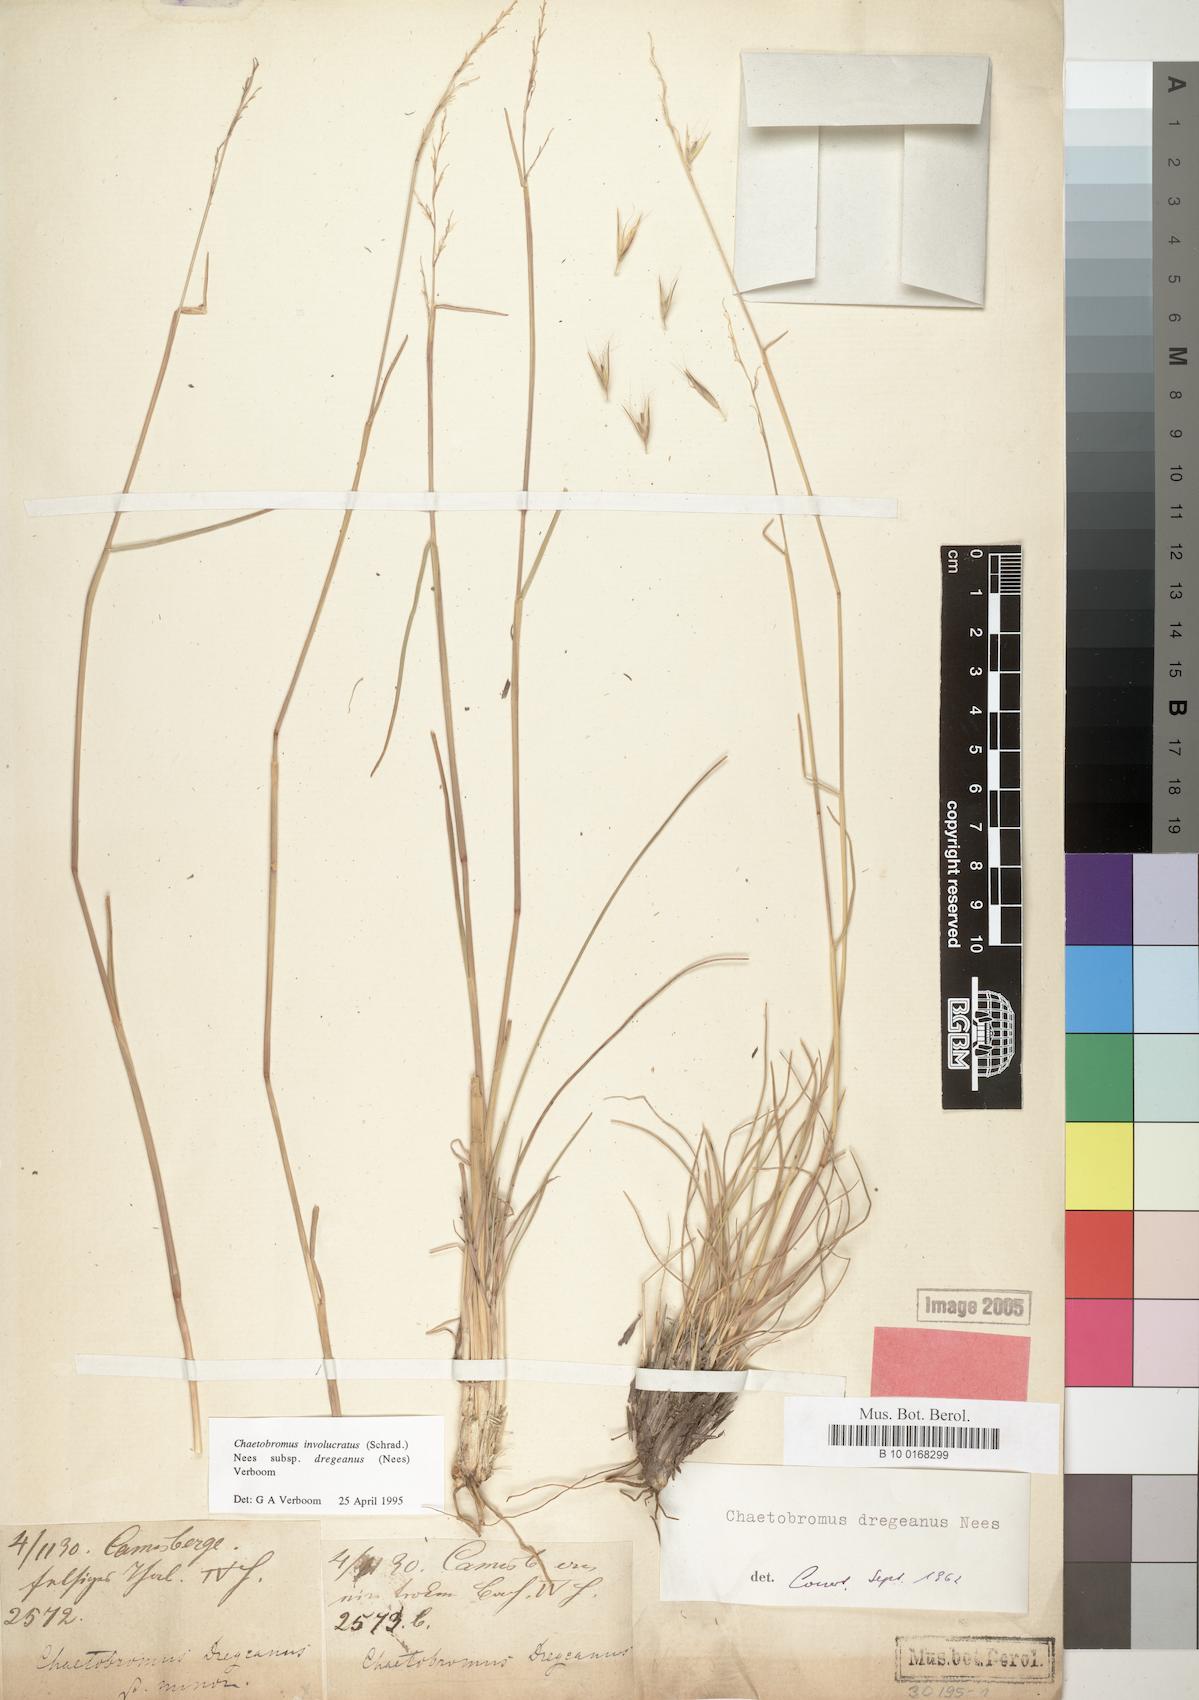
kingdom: Plantae
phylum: Tracheophyta
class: Liliopsida
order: Poales
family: Poaceae
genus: Chaetobromus
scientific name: Chaetobromus involucratus
